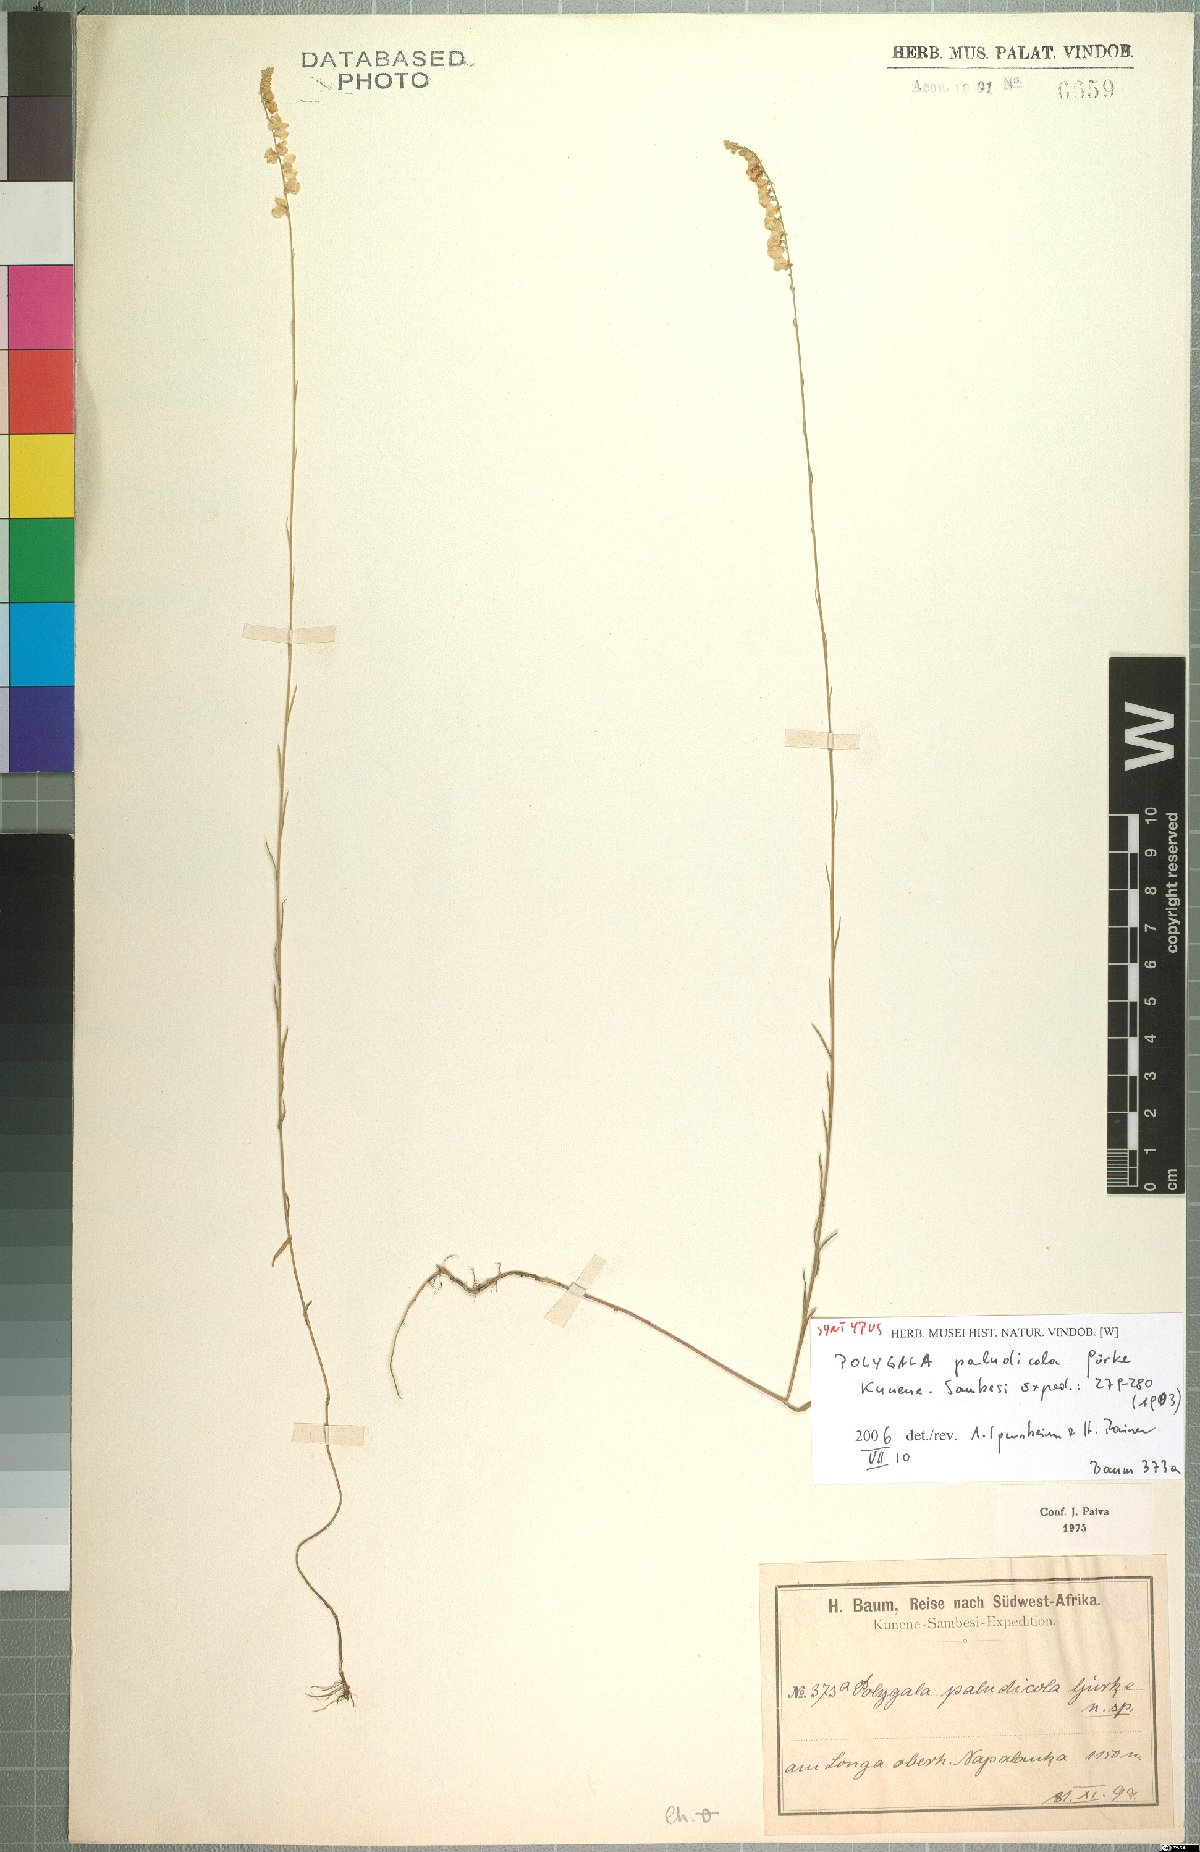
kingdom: Plantae
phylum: Tracheophyta
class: Magnoliopsida
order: Fabales
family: Polygalaceae
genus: Polygala
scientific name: Polygala paludicola
